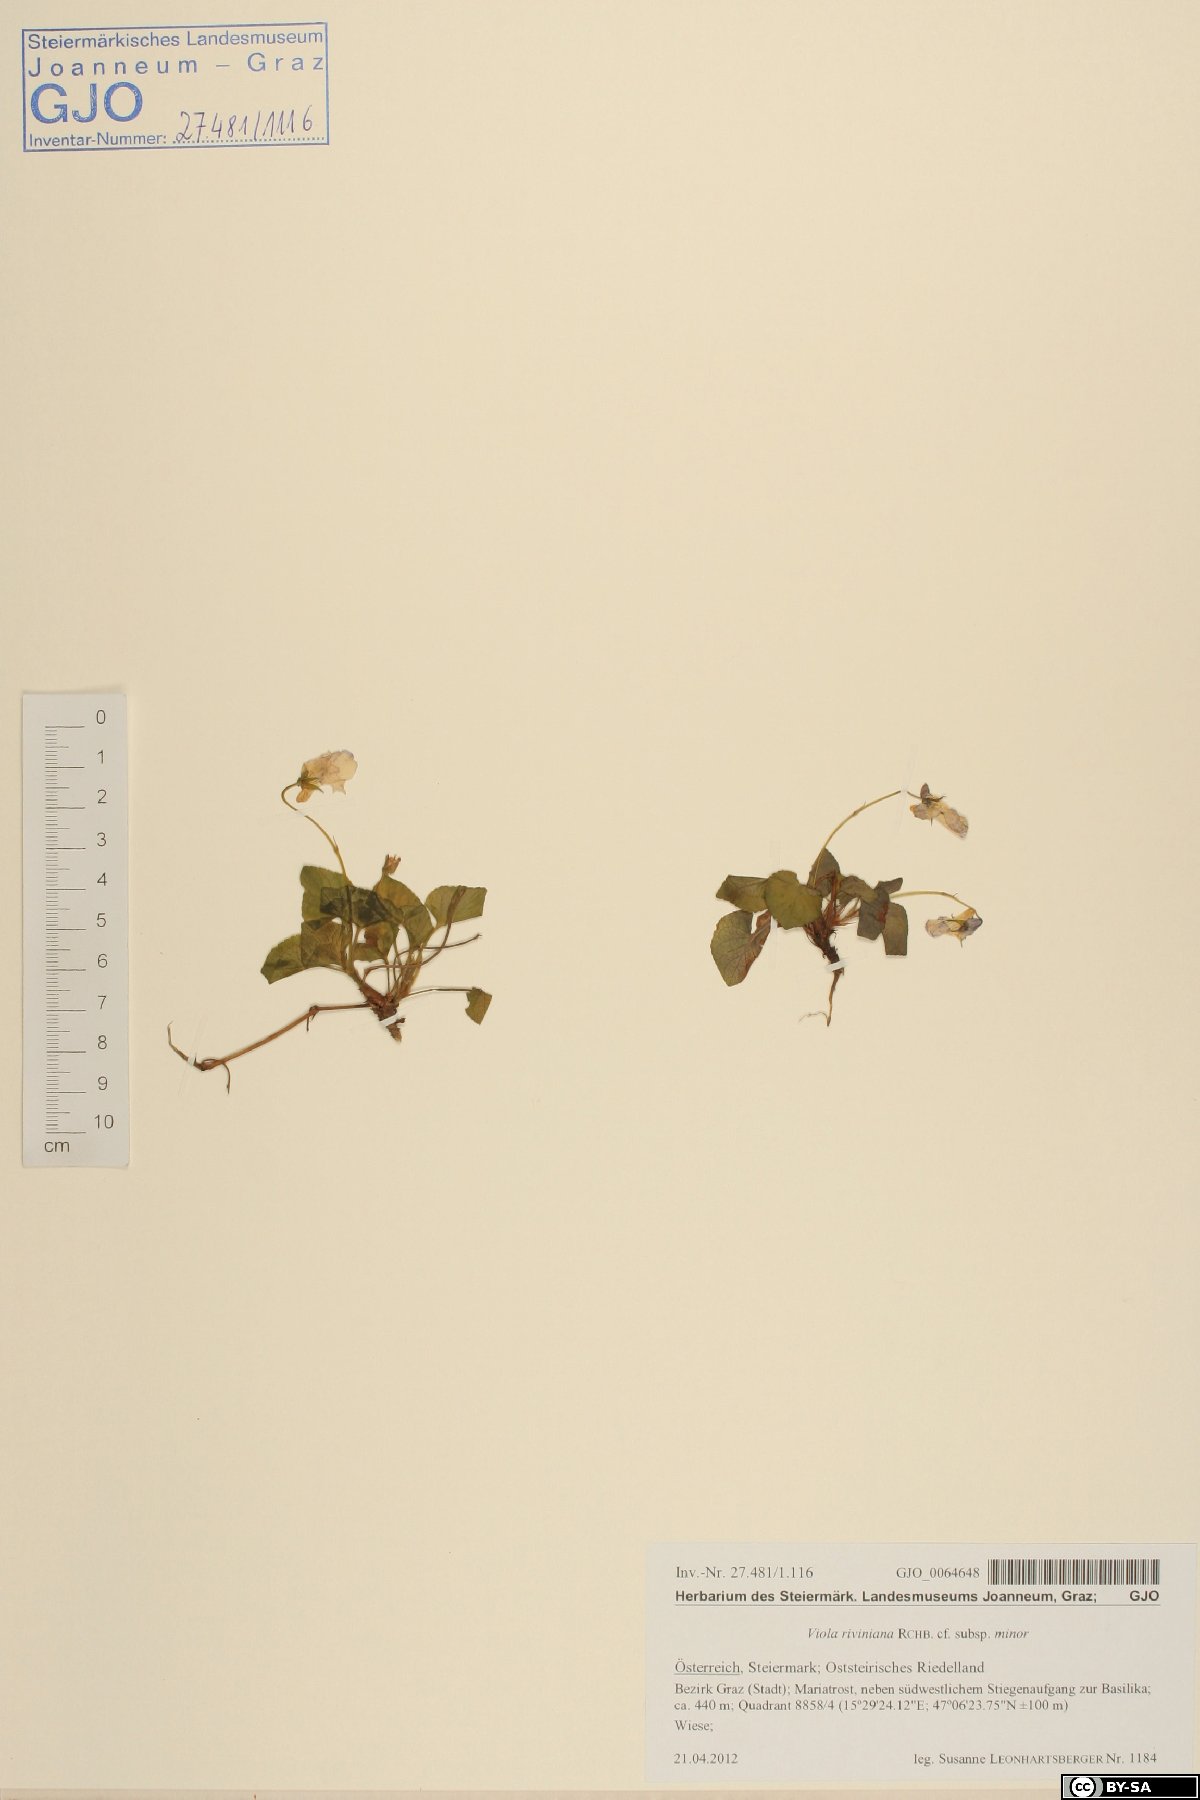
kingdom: Plantae
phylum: Tracheophyta
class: Magnoliopsida
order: Malpighiales
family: Violaceae
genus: Viola
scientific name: Viola riviniana
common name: Common dog-violet
